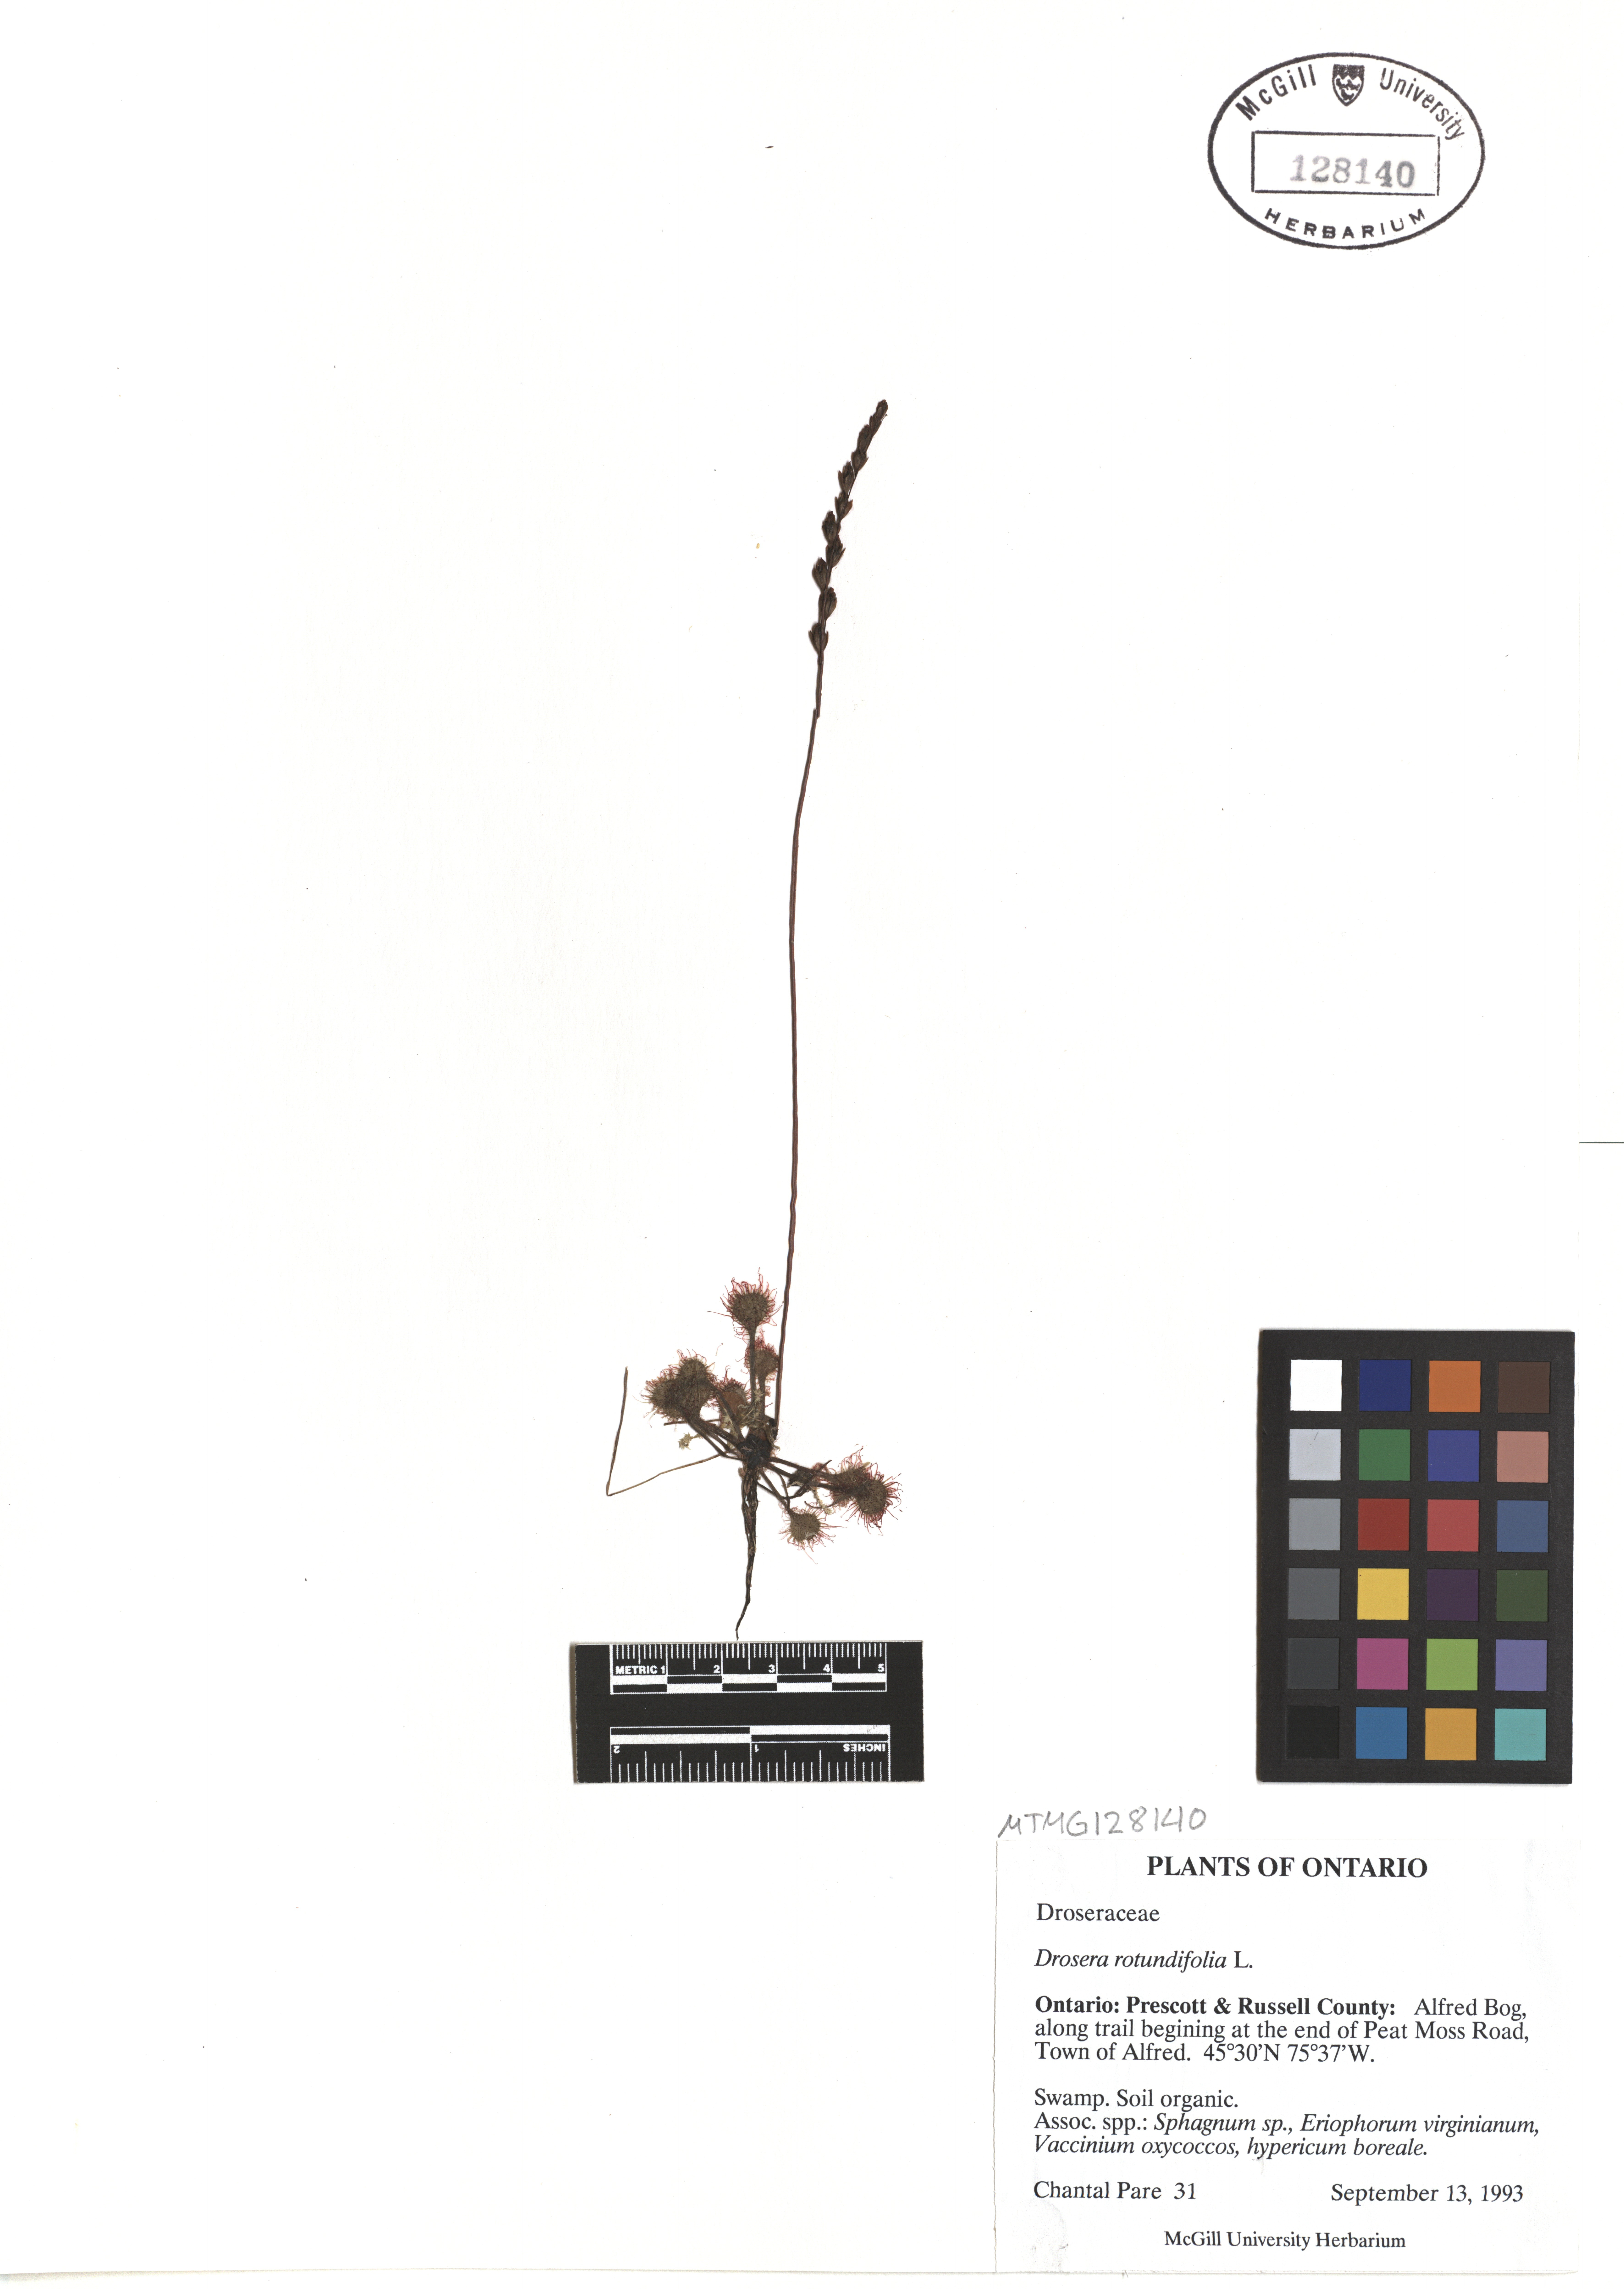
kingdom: Plantae
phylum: Tracheophyta
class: Magnoliopsida
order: Caryophyllales
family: Droseraceae
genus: Drosera
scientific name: Drosera rotundifolia
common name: Round-leaved sundew
